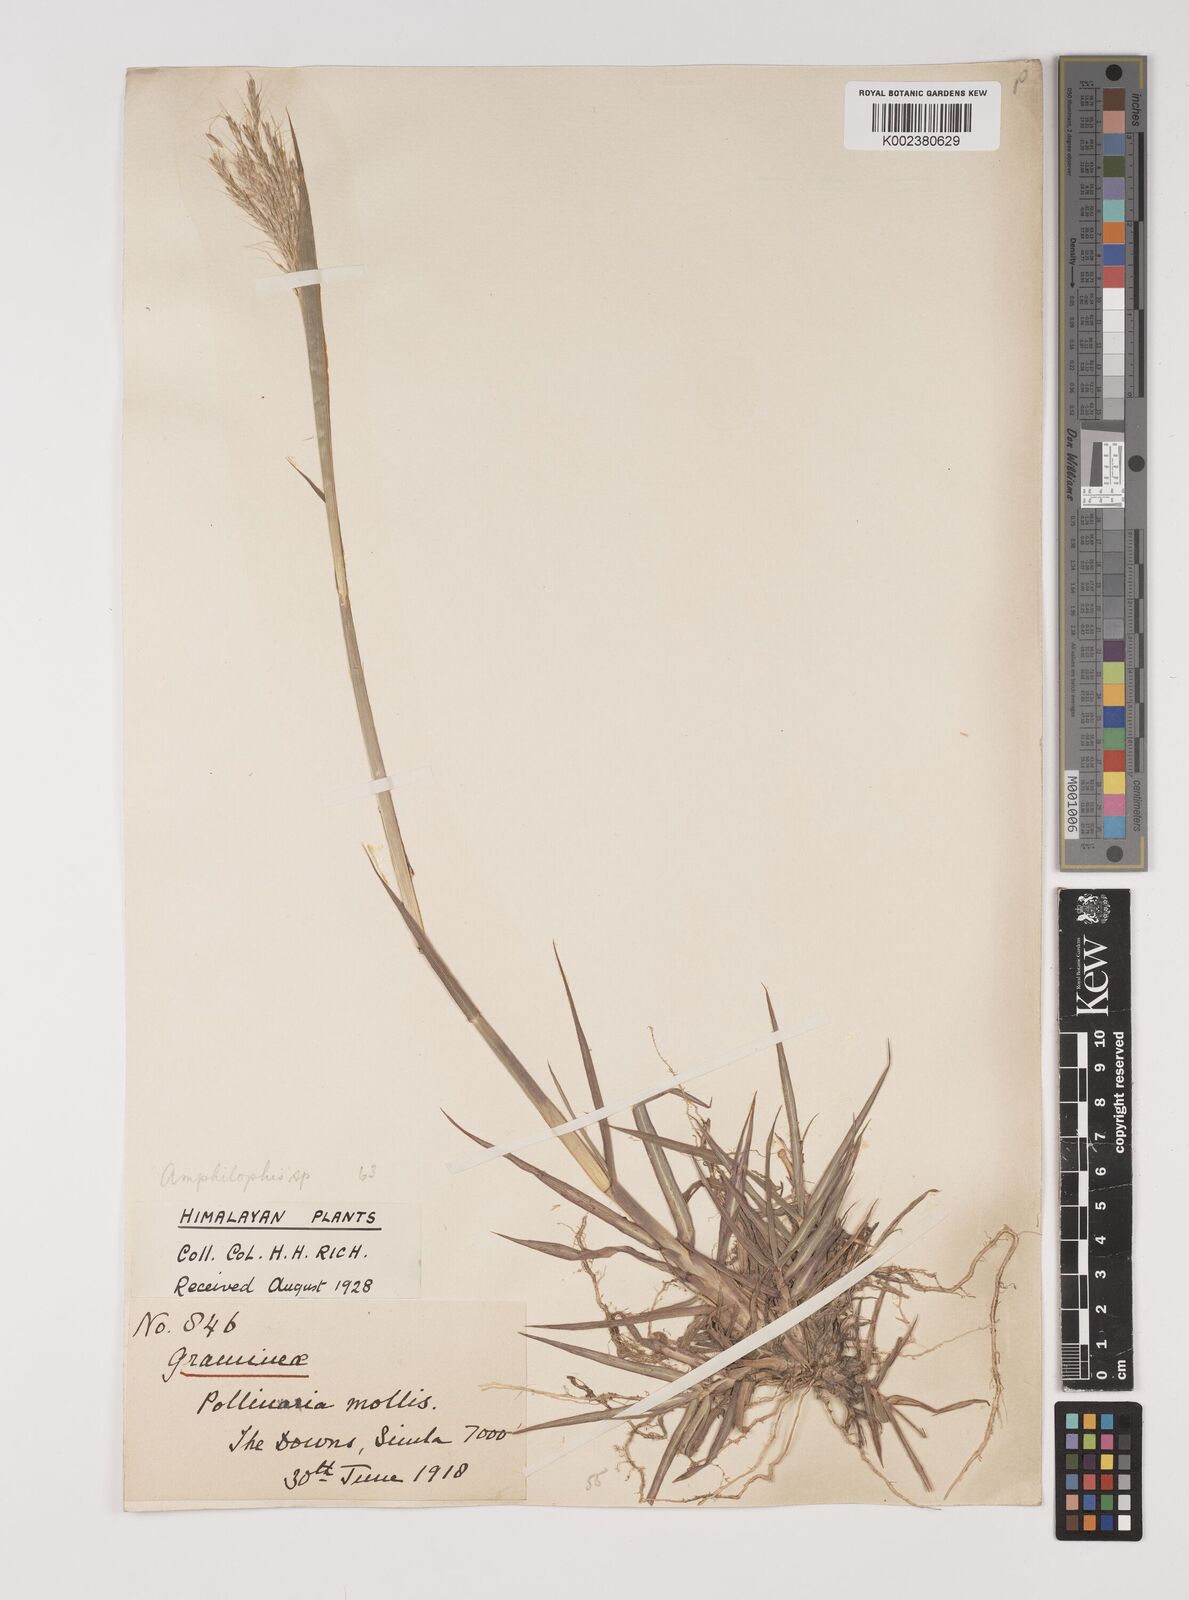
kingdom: Plantae
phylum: Tracheophyta
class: Liliopsida
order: Poales
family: Poaceae
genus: Bothriochloa
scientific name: Bothriochloa bladhii
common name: Caucasian bluestem
